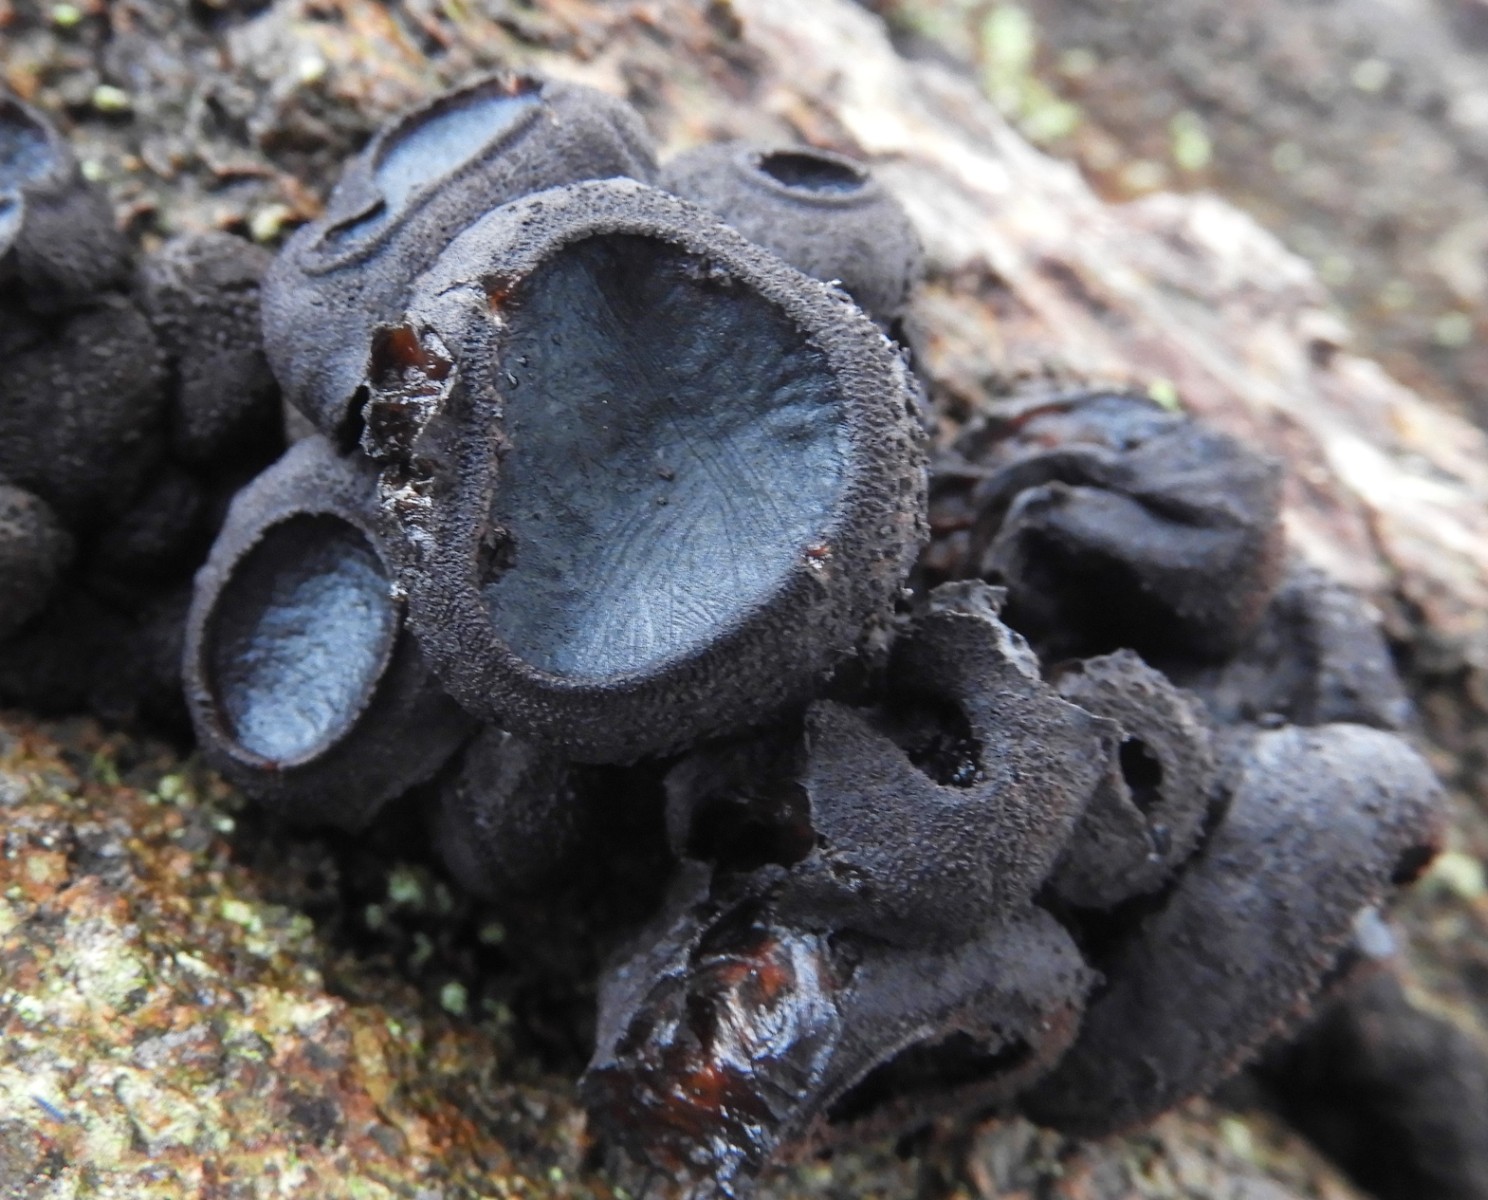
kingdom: Fungi
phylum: Ascomycota
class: Leotiomycetes
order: Phacidiales
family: Phacidiaceae
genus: Bulgaria
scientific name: Bulgaria inquinans
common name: afsmittende topsvamp
